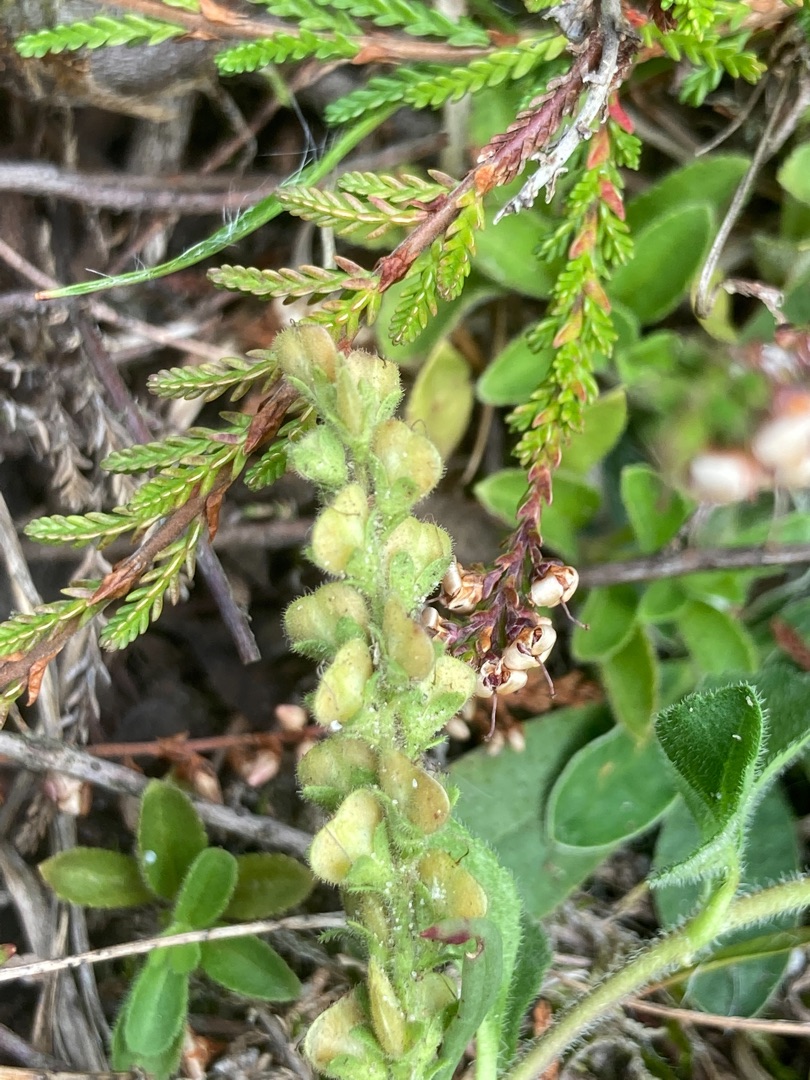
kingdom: Plantae
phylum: Tracheophyta
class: Magnoliopsida
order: Lamiales
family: Plantaginaceae
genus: Veronica
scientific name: Veronica officinalis
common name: Læge-ærenpris
